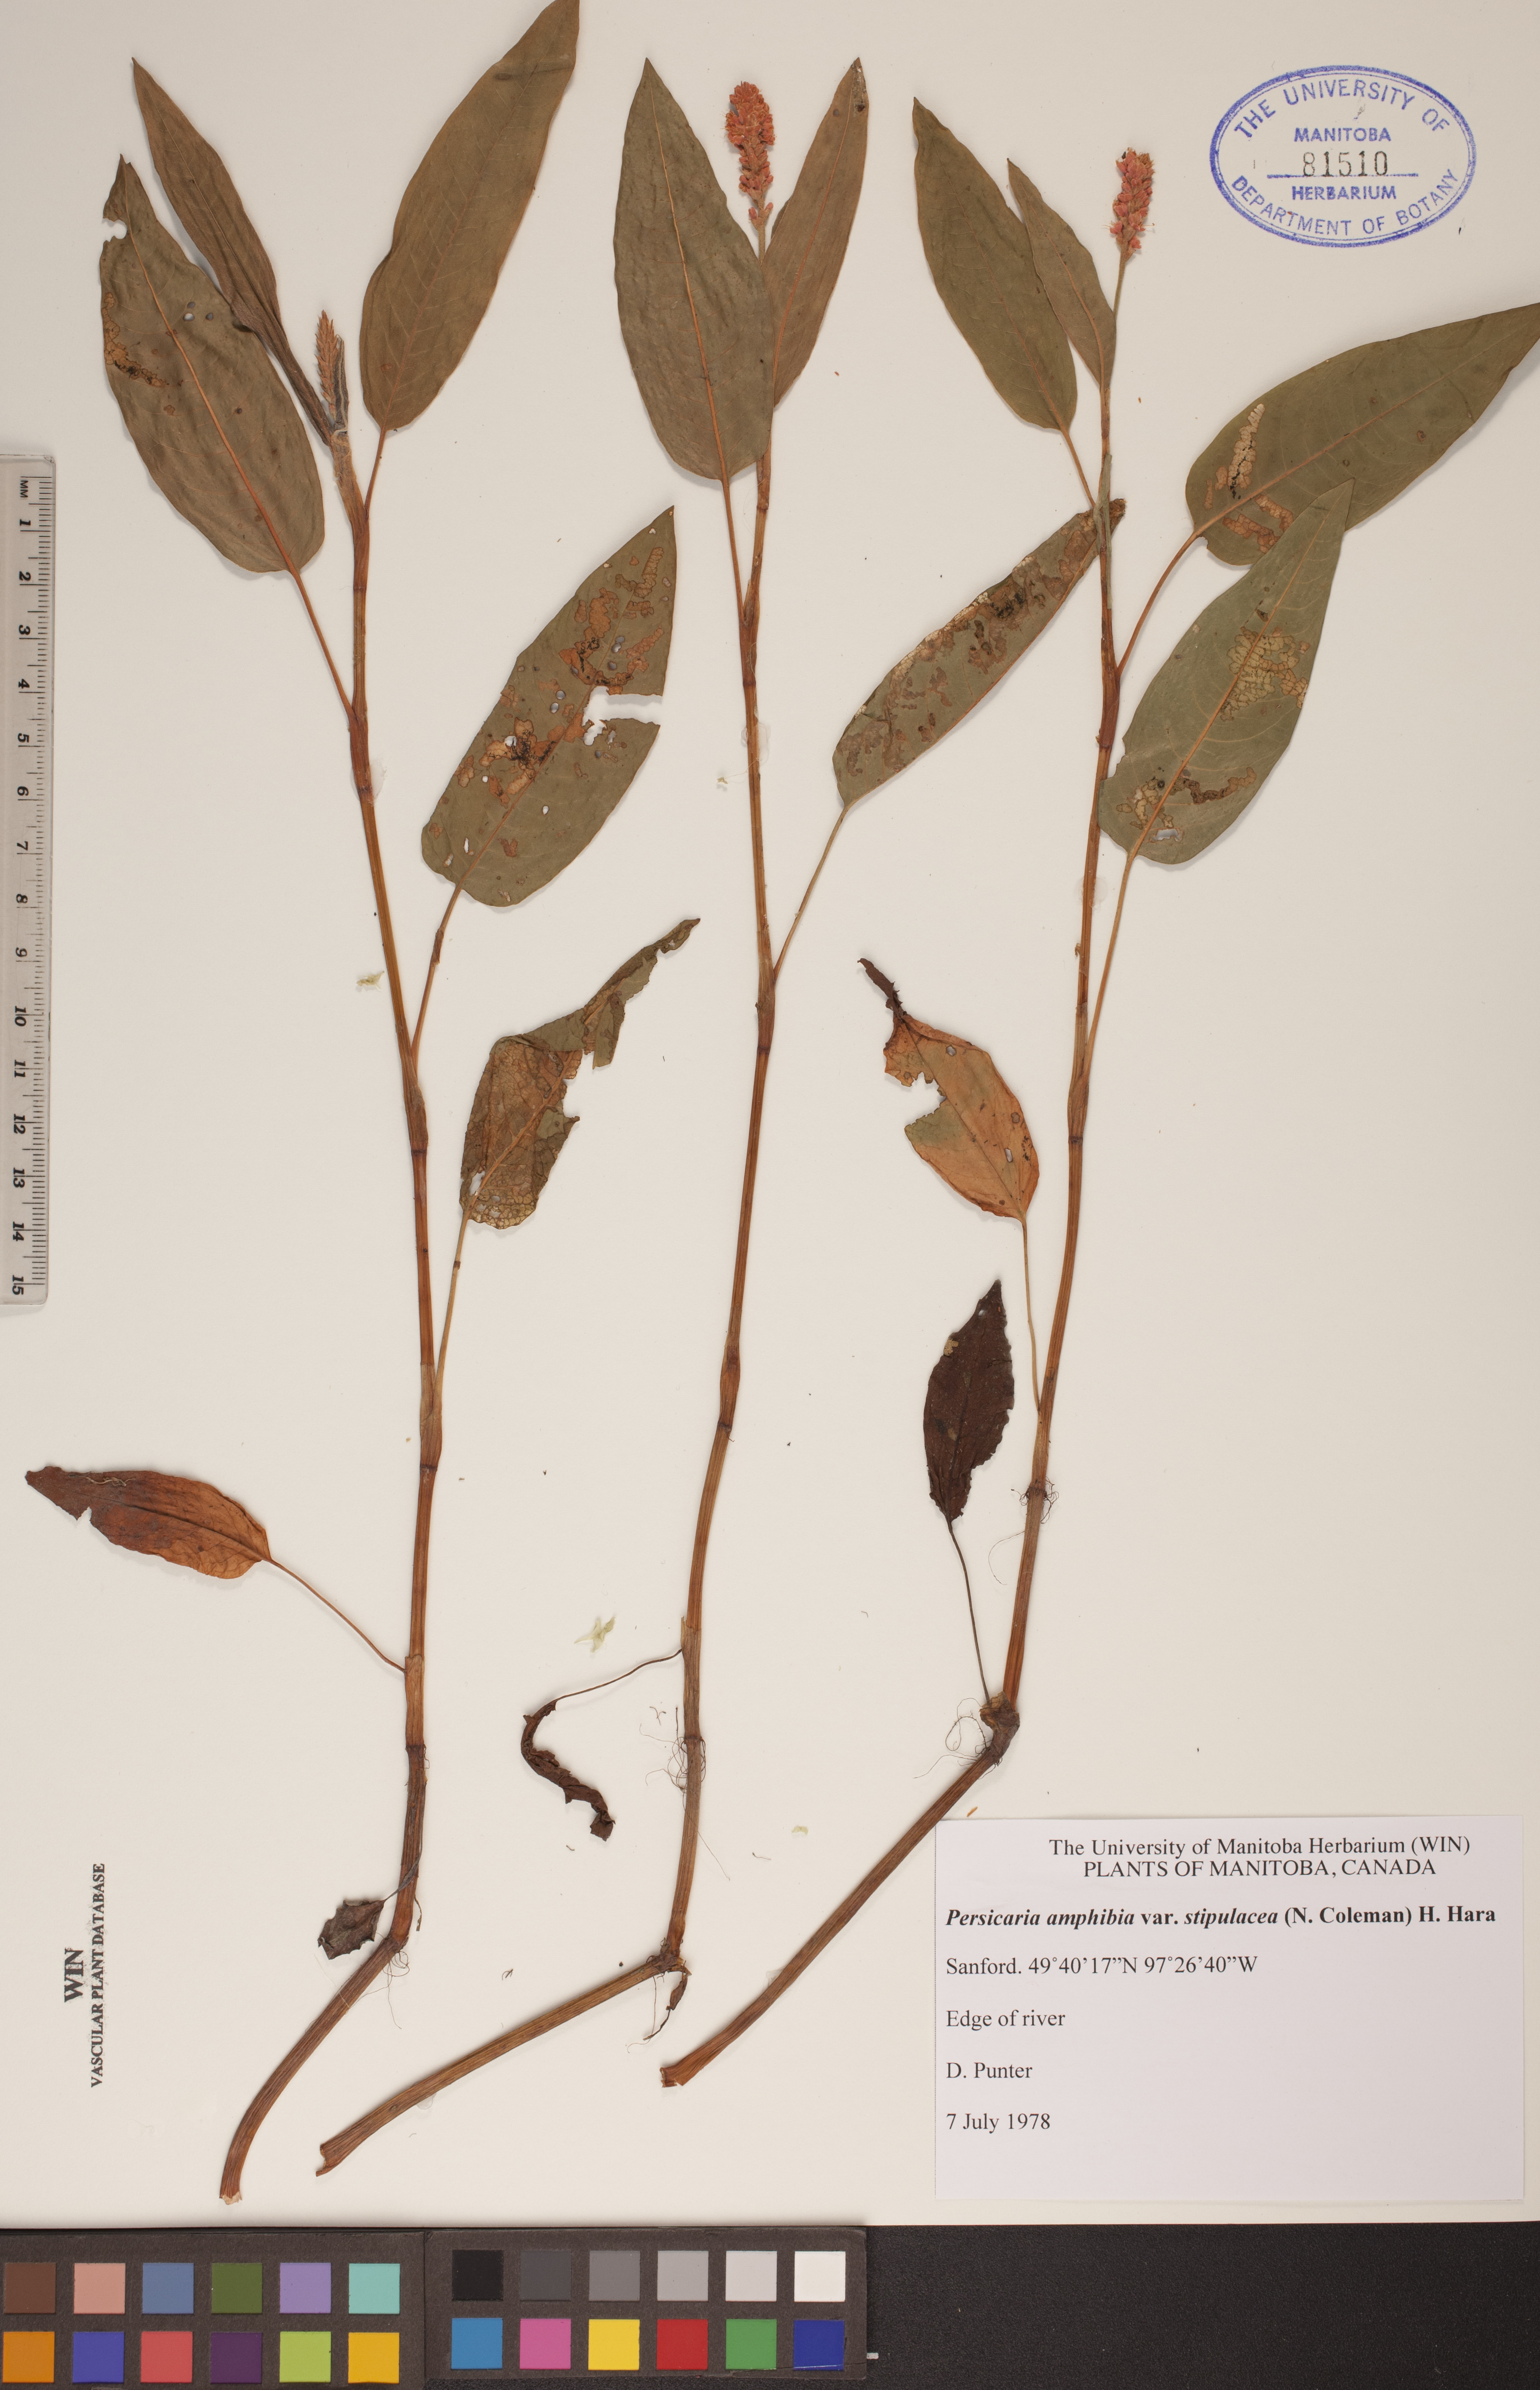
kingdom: Plantae
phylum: Tracheophyta
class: Magnoliopsida
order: Caryophyllales
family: Polygonaceae
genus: Persicaria
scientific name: Persicaria amphibia
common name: Amphibious bistort
